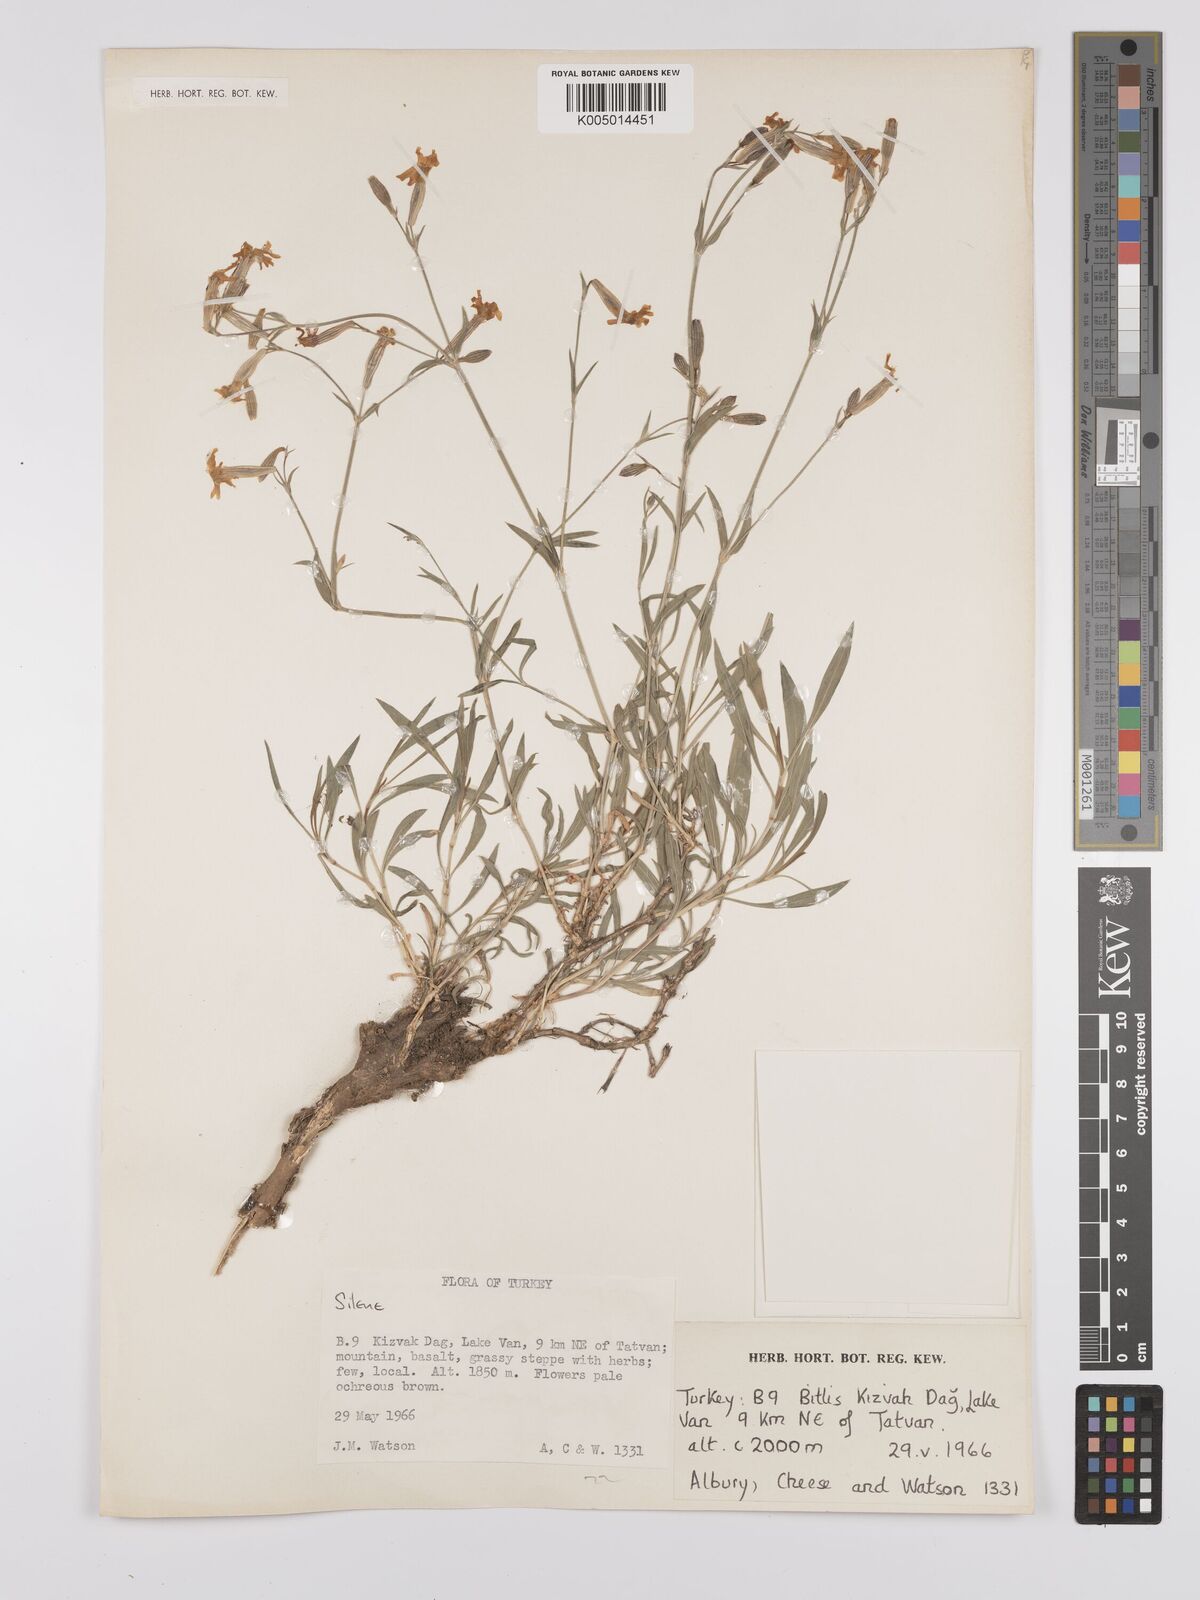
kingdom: Plantae
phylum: Tracheophyta
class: Magnoliopsida
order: Caryophyllales
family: Caryophyllaceae
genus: Silene
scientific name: Silene
